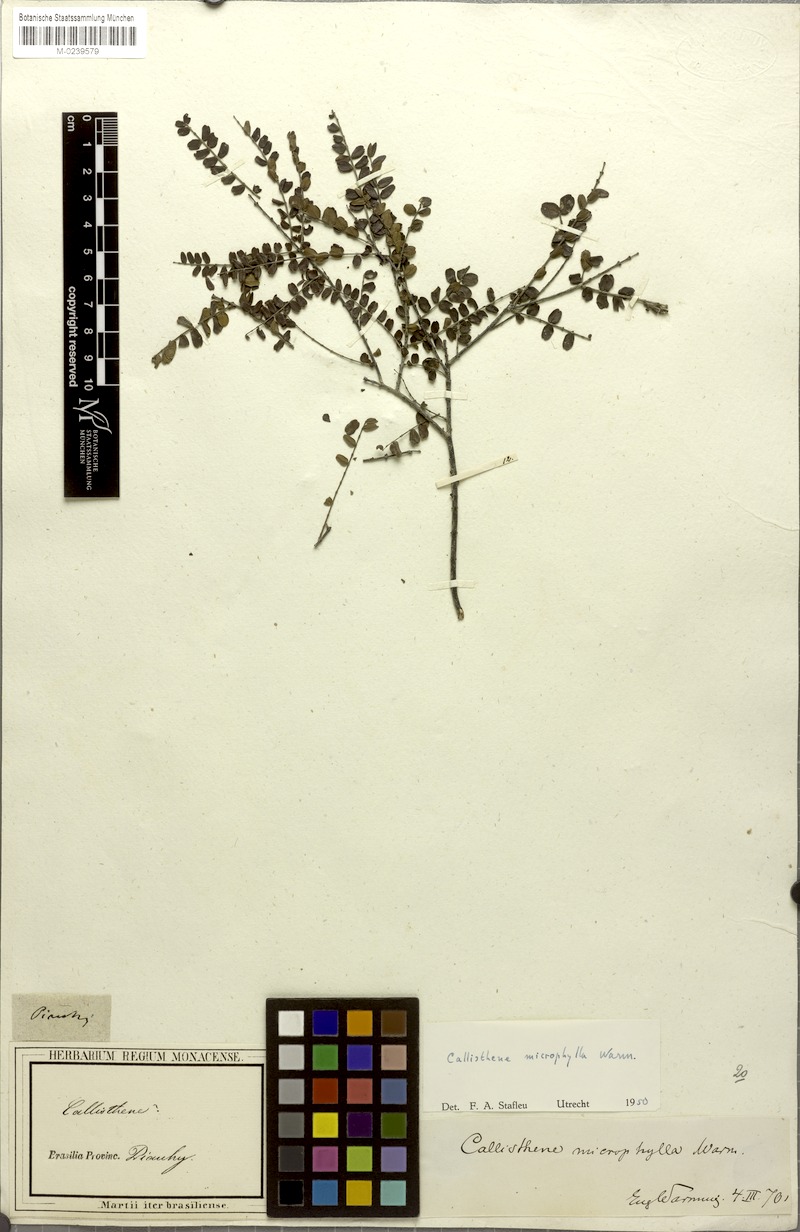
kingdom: Plantae
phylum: Tracheophyta
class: Magnoliopsida
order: Myrtales
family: Vochysiaceae
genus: Callisthene
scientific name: Callisthene microphylla
